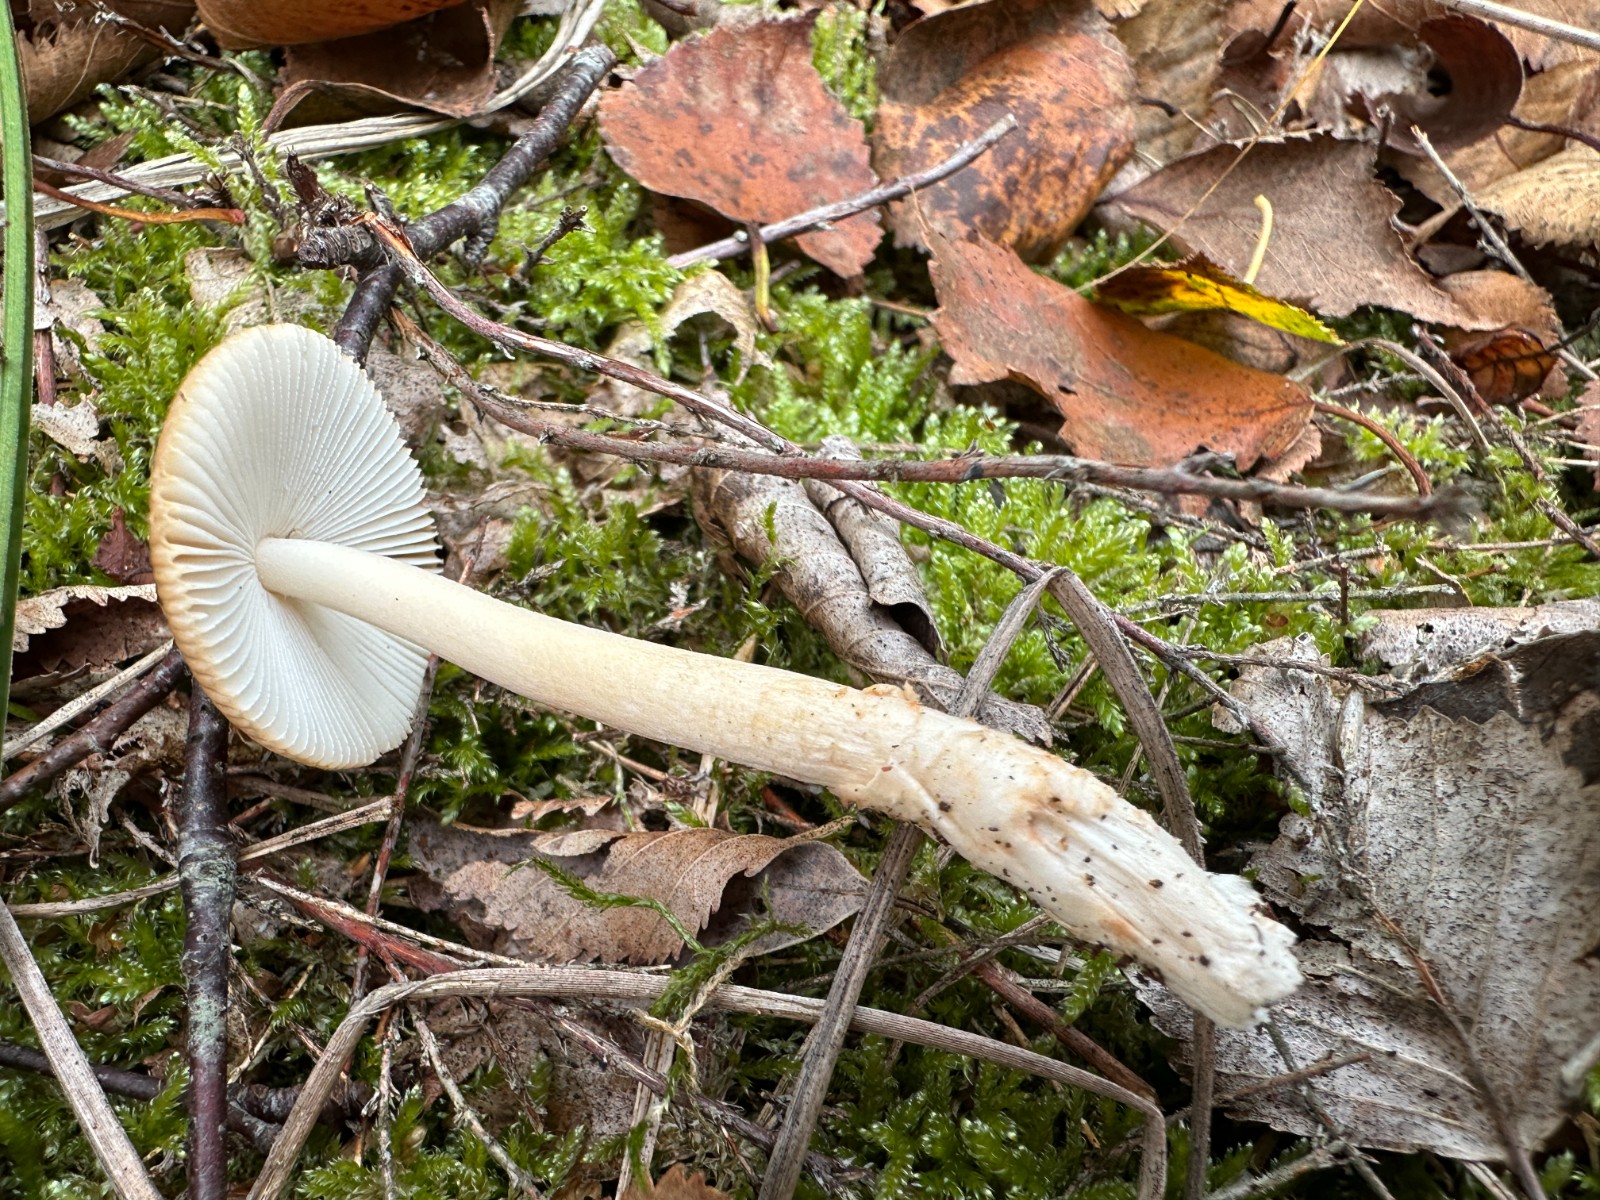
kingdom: Fungi
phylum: Basidiomycota
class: Agaricomycetes
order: Agaricales
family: Amanitaceae
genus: Amanita
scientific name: Amanita fulva
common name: brun kam-fluesvamp
